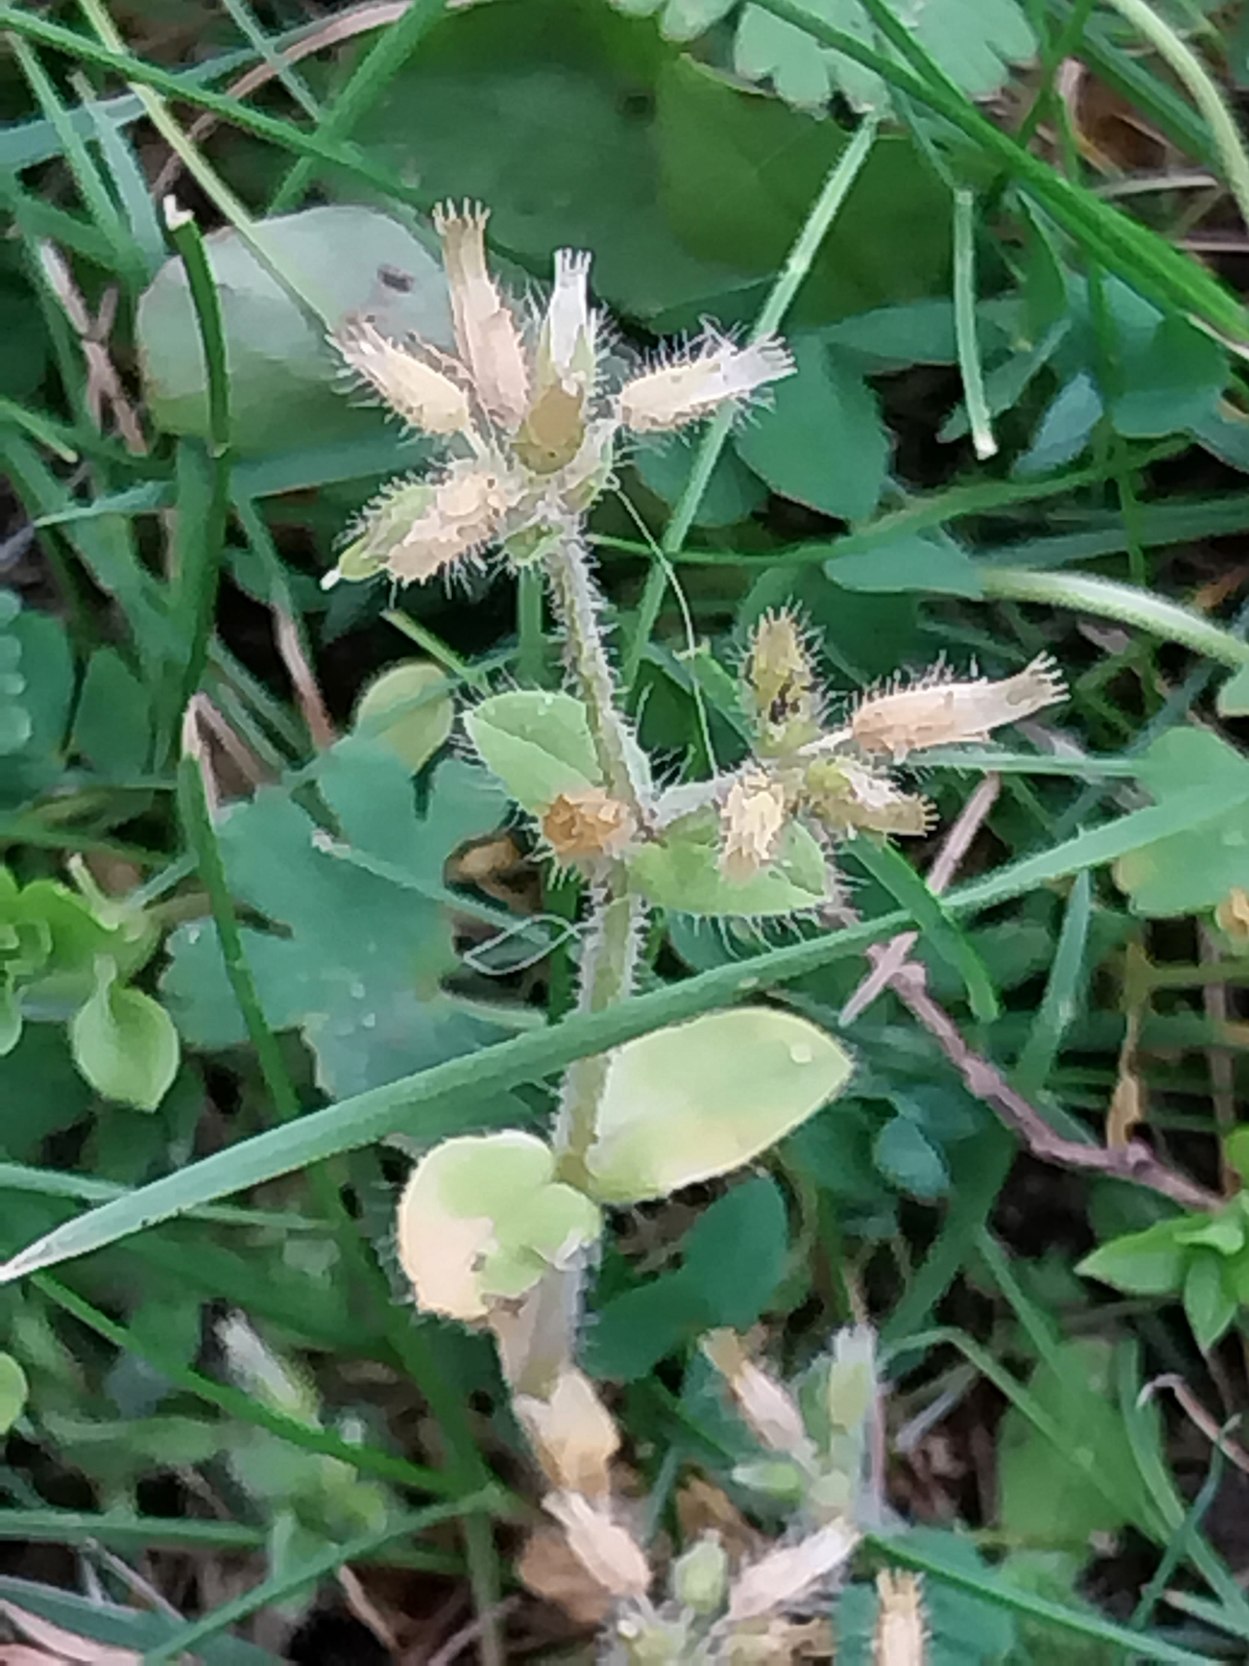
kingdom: Plantae
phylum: Tracheophyta
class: Magnoliopsida
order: Caryophyllales
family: Caryophyllaceae
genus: Cerastium
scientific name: Cerastium glomeratum
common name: Opret hønsetarm
